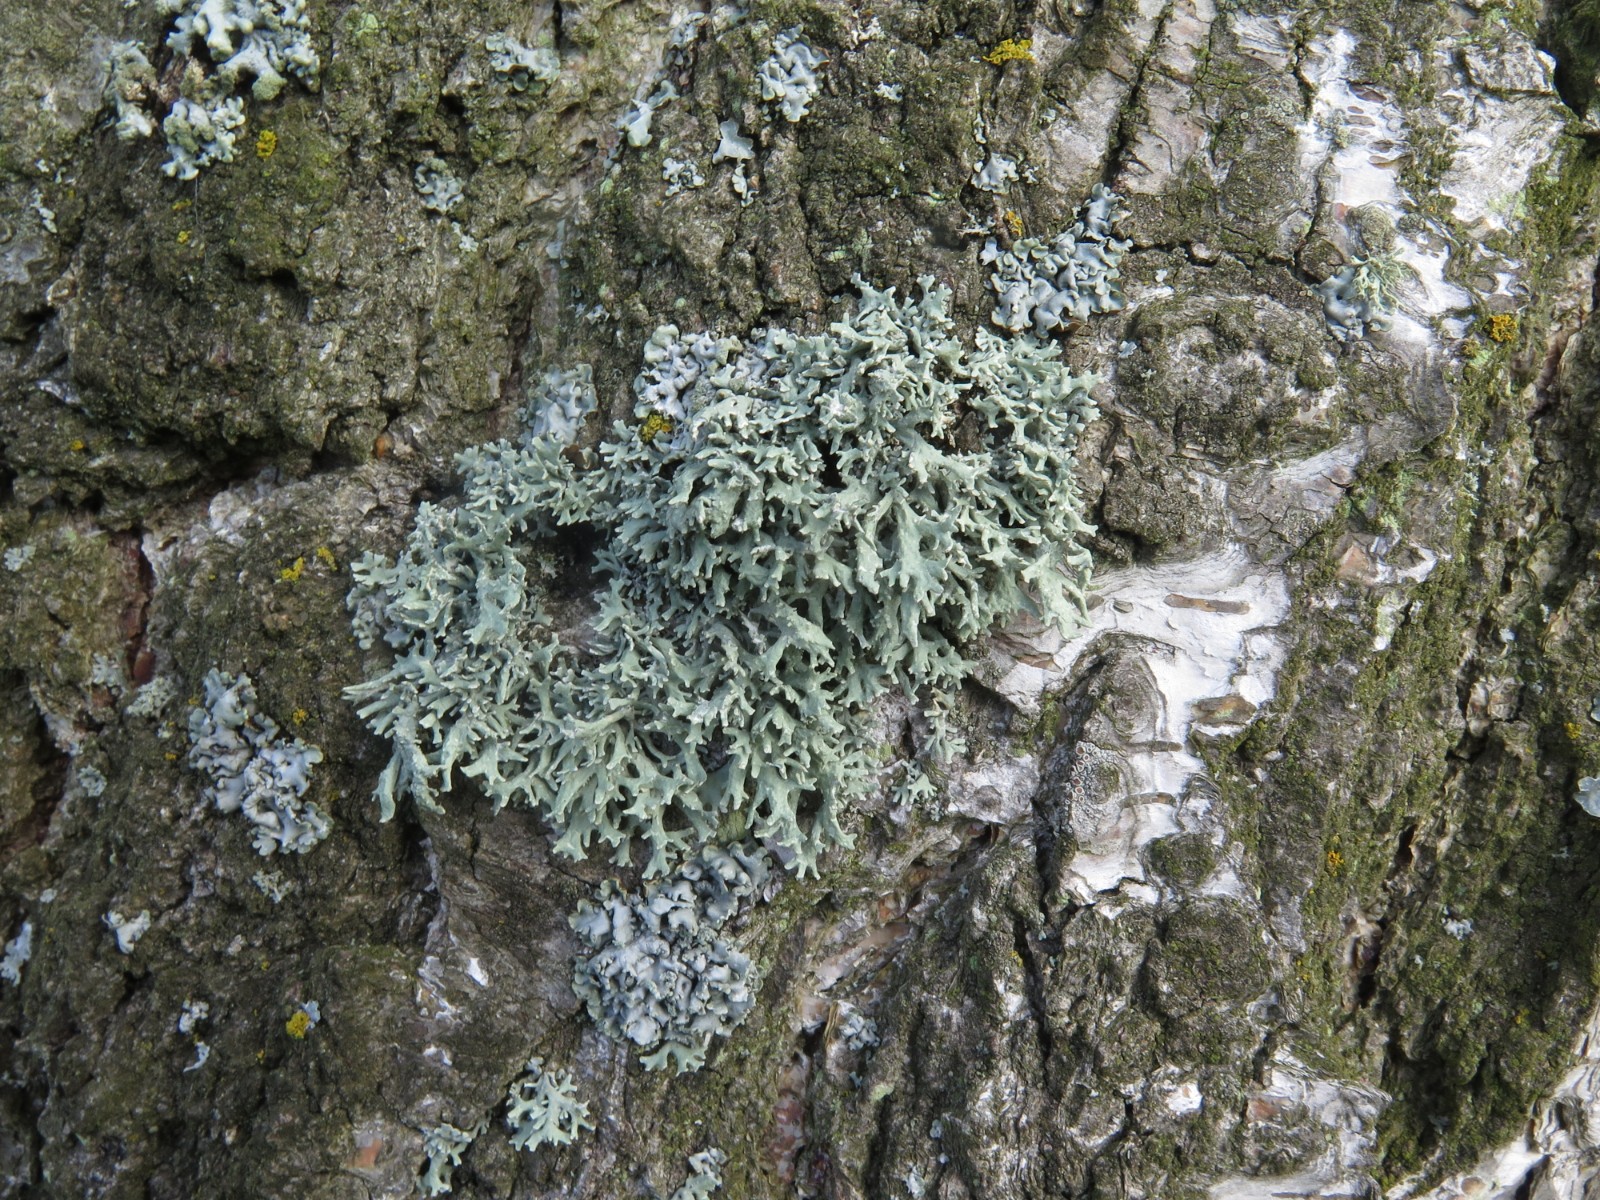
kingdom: Fungi
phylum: Ascomycota
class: Lecanoromycetes
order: Lecanorales
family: Parmeliaceae
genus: Evernia
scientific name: Evernia prunastri
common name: almindelig slåenlav
